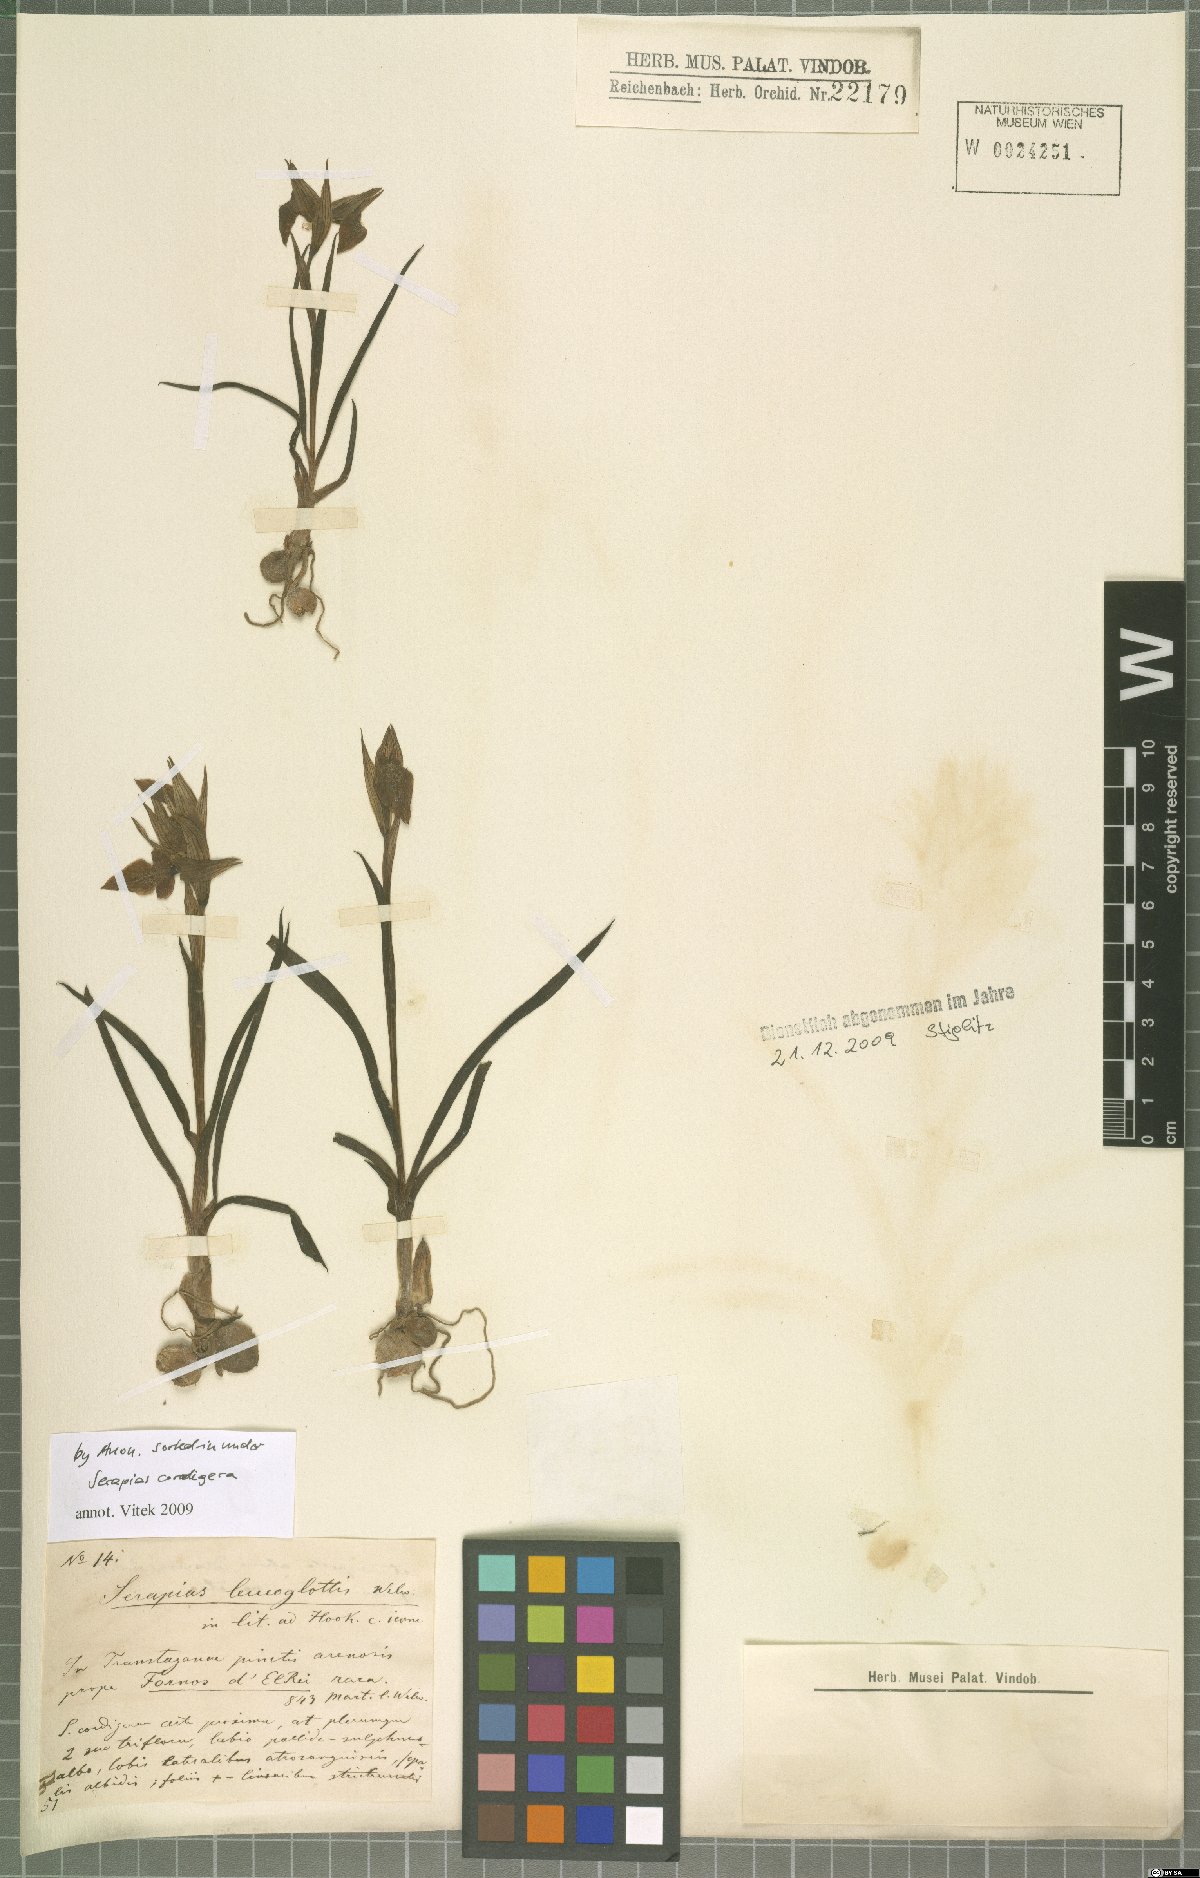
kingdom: Plantae
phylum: Tracheophyta
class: Liliopsida
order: Asparagales
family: Orchidaceae
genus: Serapias
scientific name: Serapias cordigera
